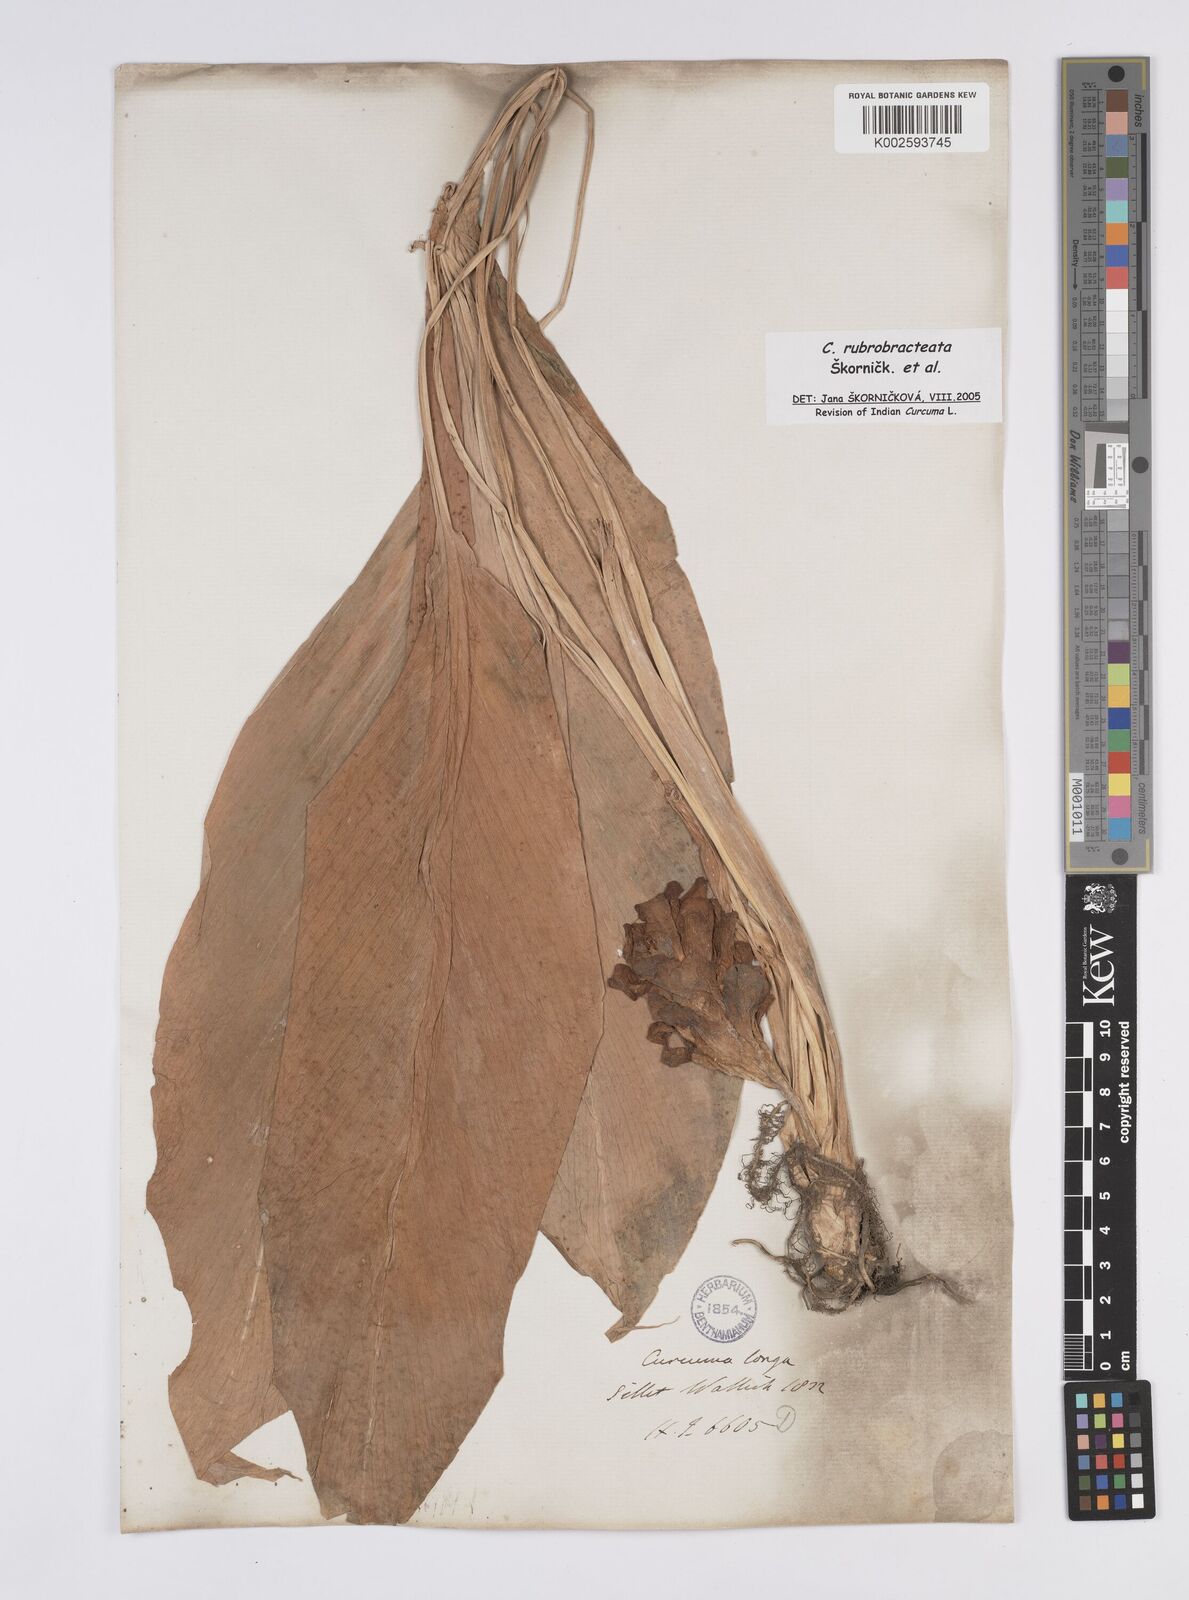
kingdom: Plantae
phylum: Tracheophyta
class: Liliopsida
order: Zingiberales
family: Zingiberaceae
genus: Curcuma
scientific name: Curcuma rubrobracteata
